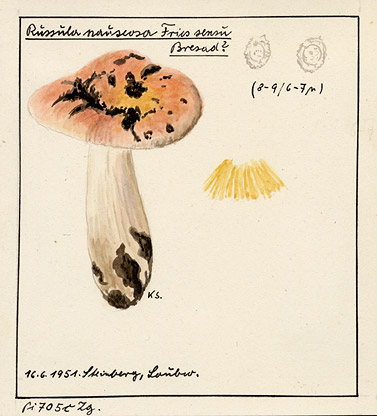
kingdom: Fungi
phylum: Basidiomycota
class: Agaricomycetes
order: Russulales
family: Russulaceae
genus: Russula
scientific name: Russula nauseosa
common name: Nauseous brittlegill
